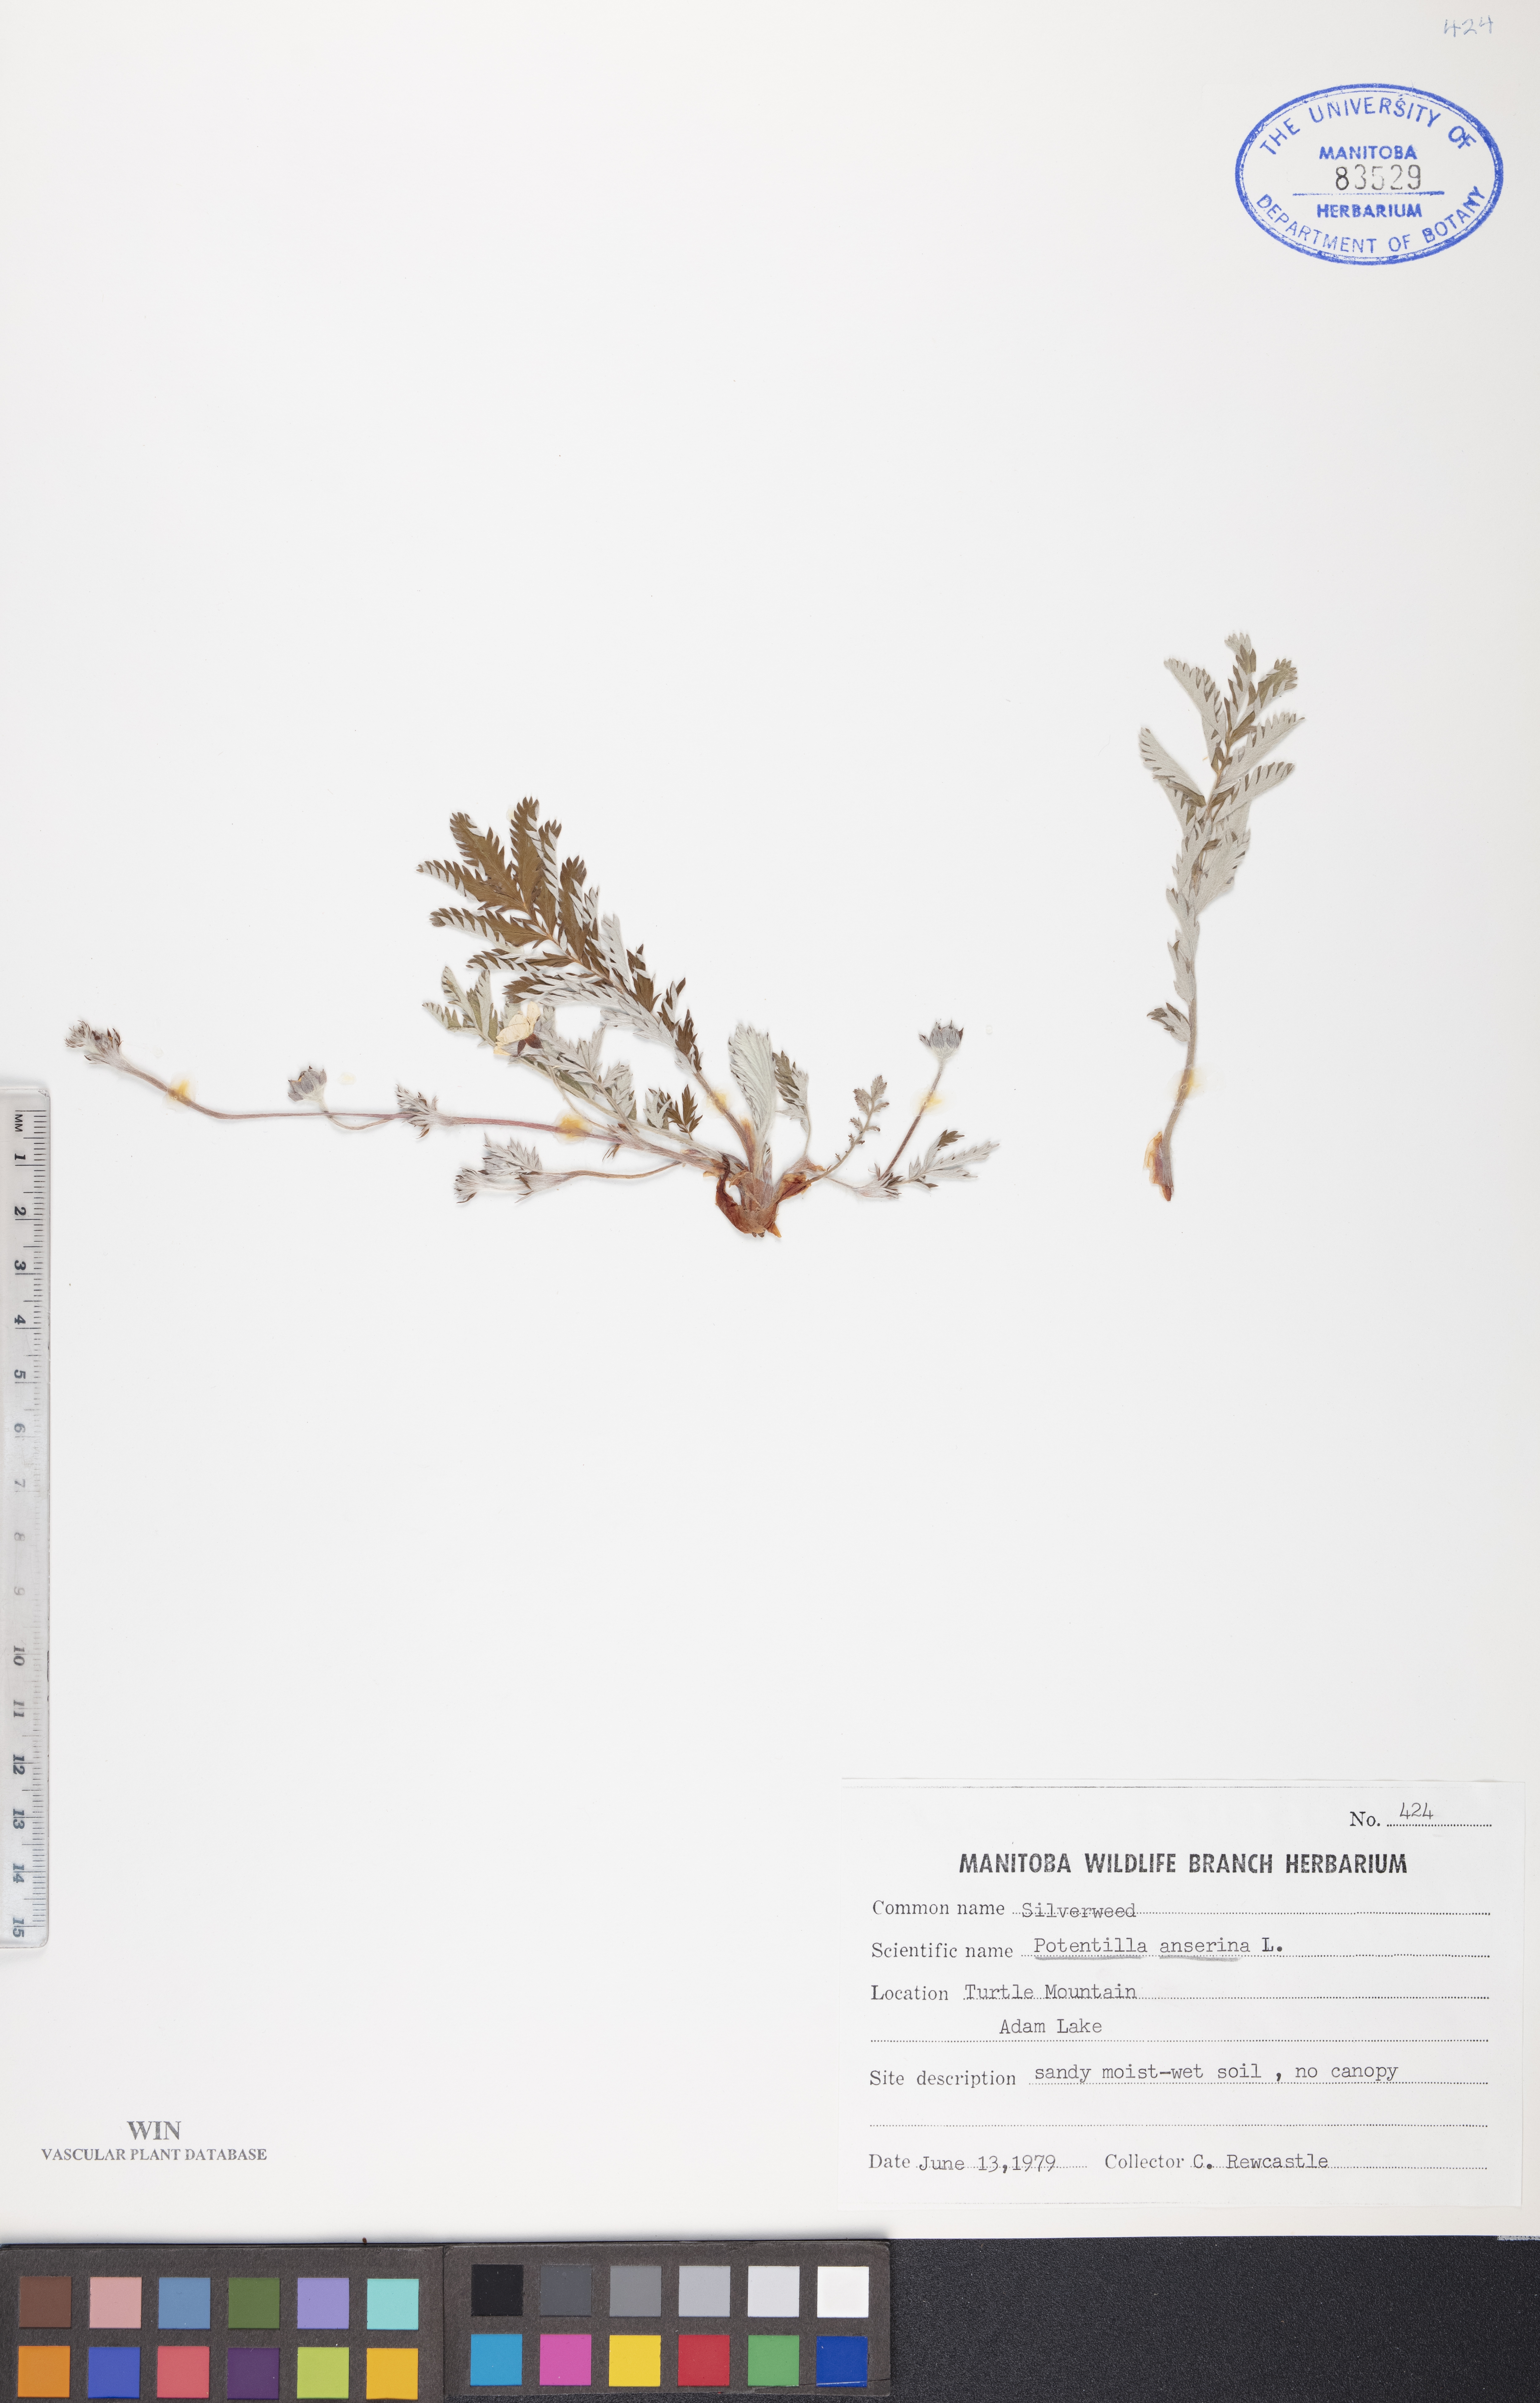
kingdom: Plantae
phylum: Tracheophyta
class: Magnoliopsida
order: Rosales
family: Rosaceae
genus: Argentina
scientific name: Argentina anserina
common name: Common silverweed
